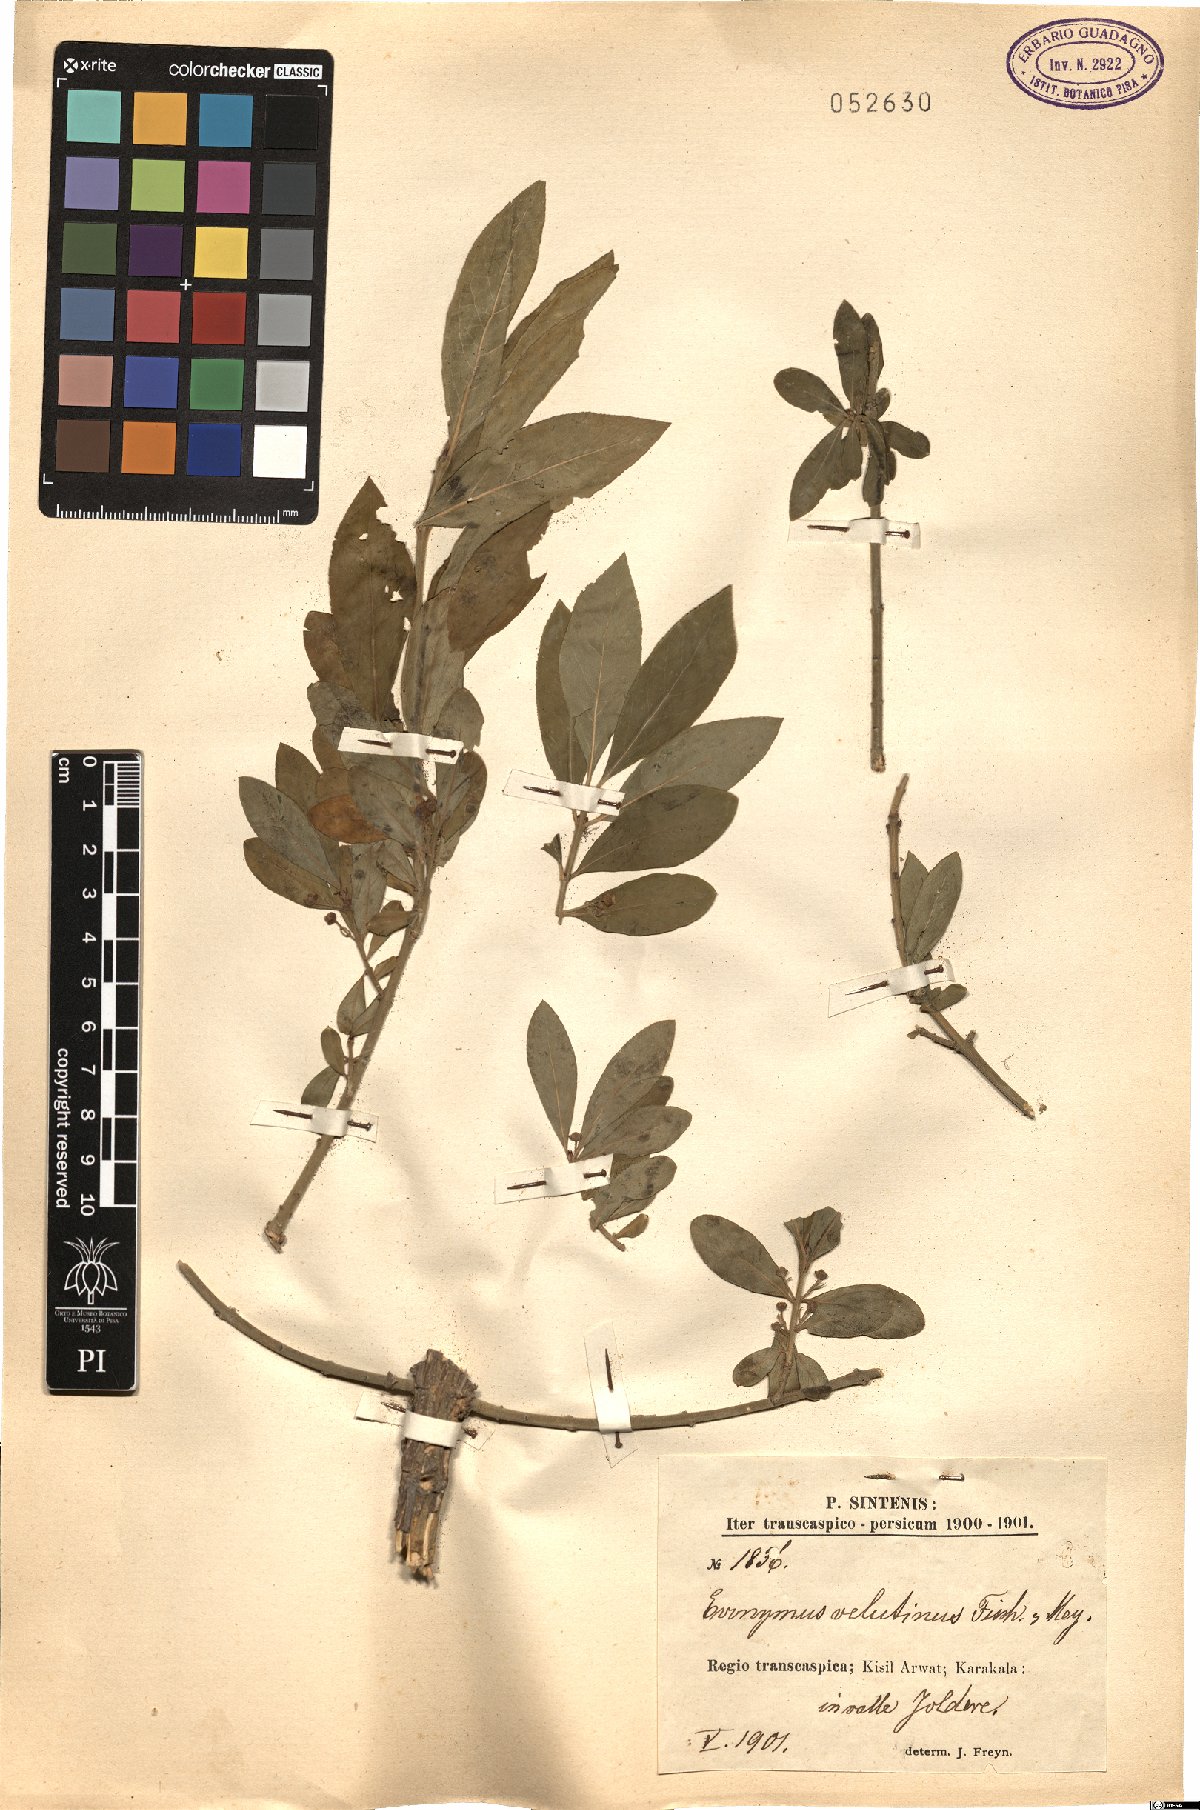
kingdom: Plantae
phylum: Tracheophyta
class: Magnoliopsida
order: Celastrales
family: Celastraceae
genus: Euonymus
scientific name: Euonymus velutinus
